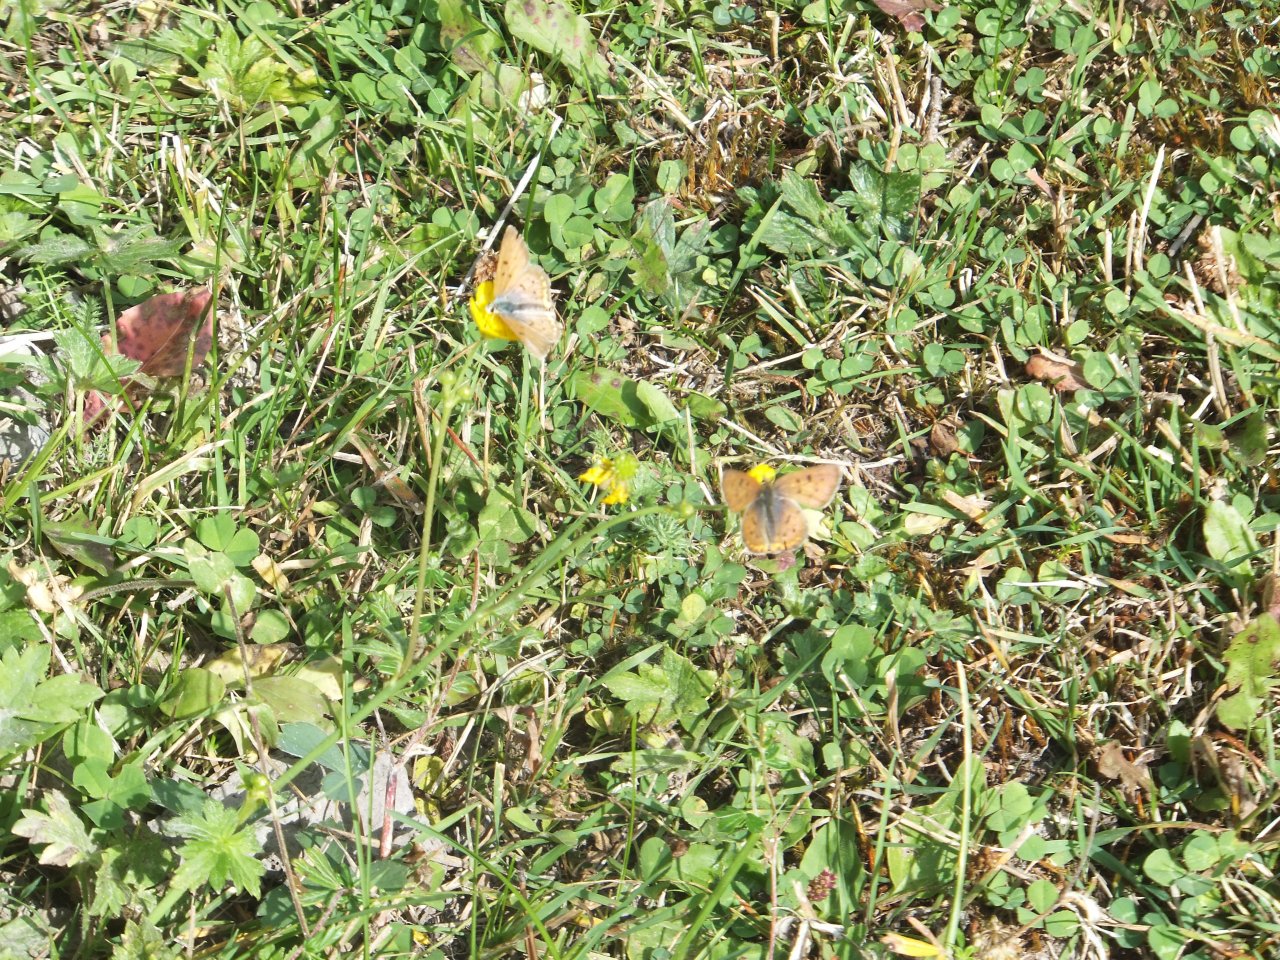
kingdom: Animalia
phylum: Arthropoda
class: Insecta
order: Lepidoptera
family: Sesiidae
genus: Sesia
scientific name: Sesia Lycaena helloides
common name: Purplish Copper
